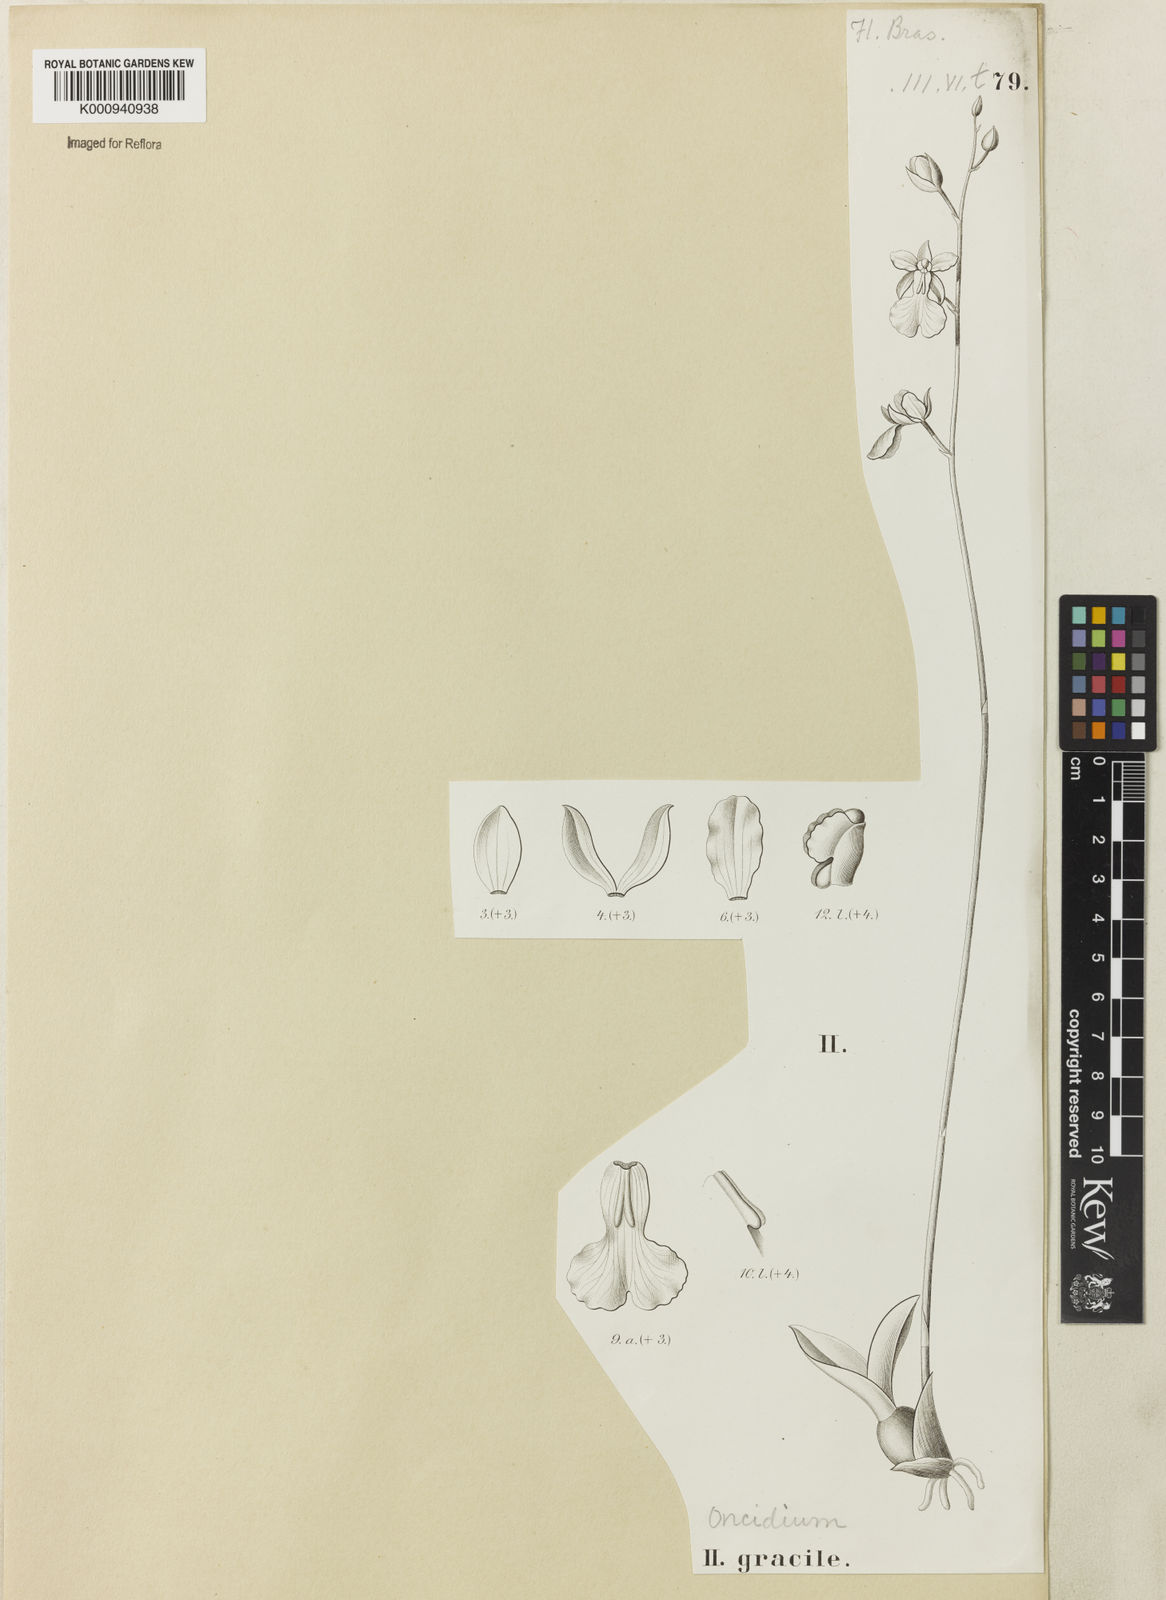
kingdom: Plantae
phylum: Tracheophyta
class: Liliopsida
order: Asparagales
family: Orchidaceae
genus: Gomesa
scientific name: Gomesa gracilis
